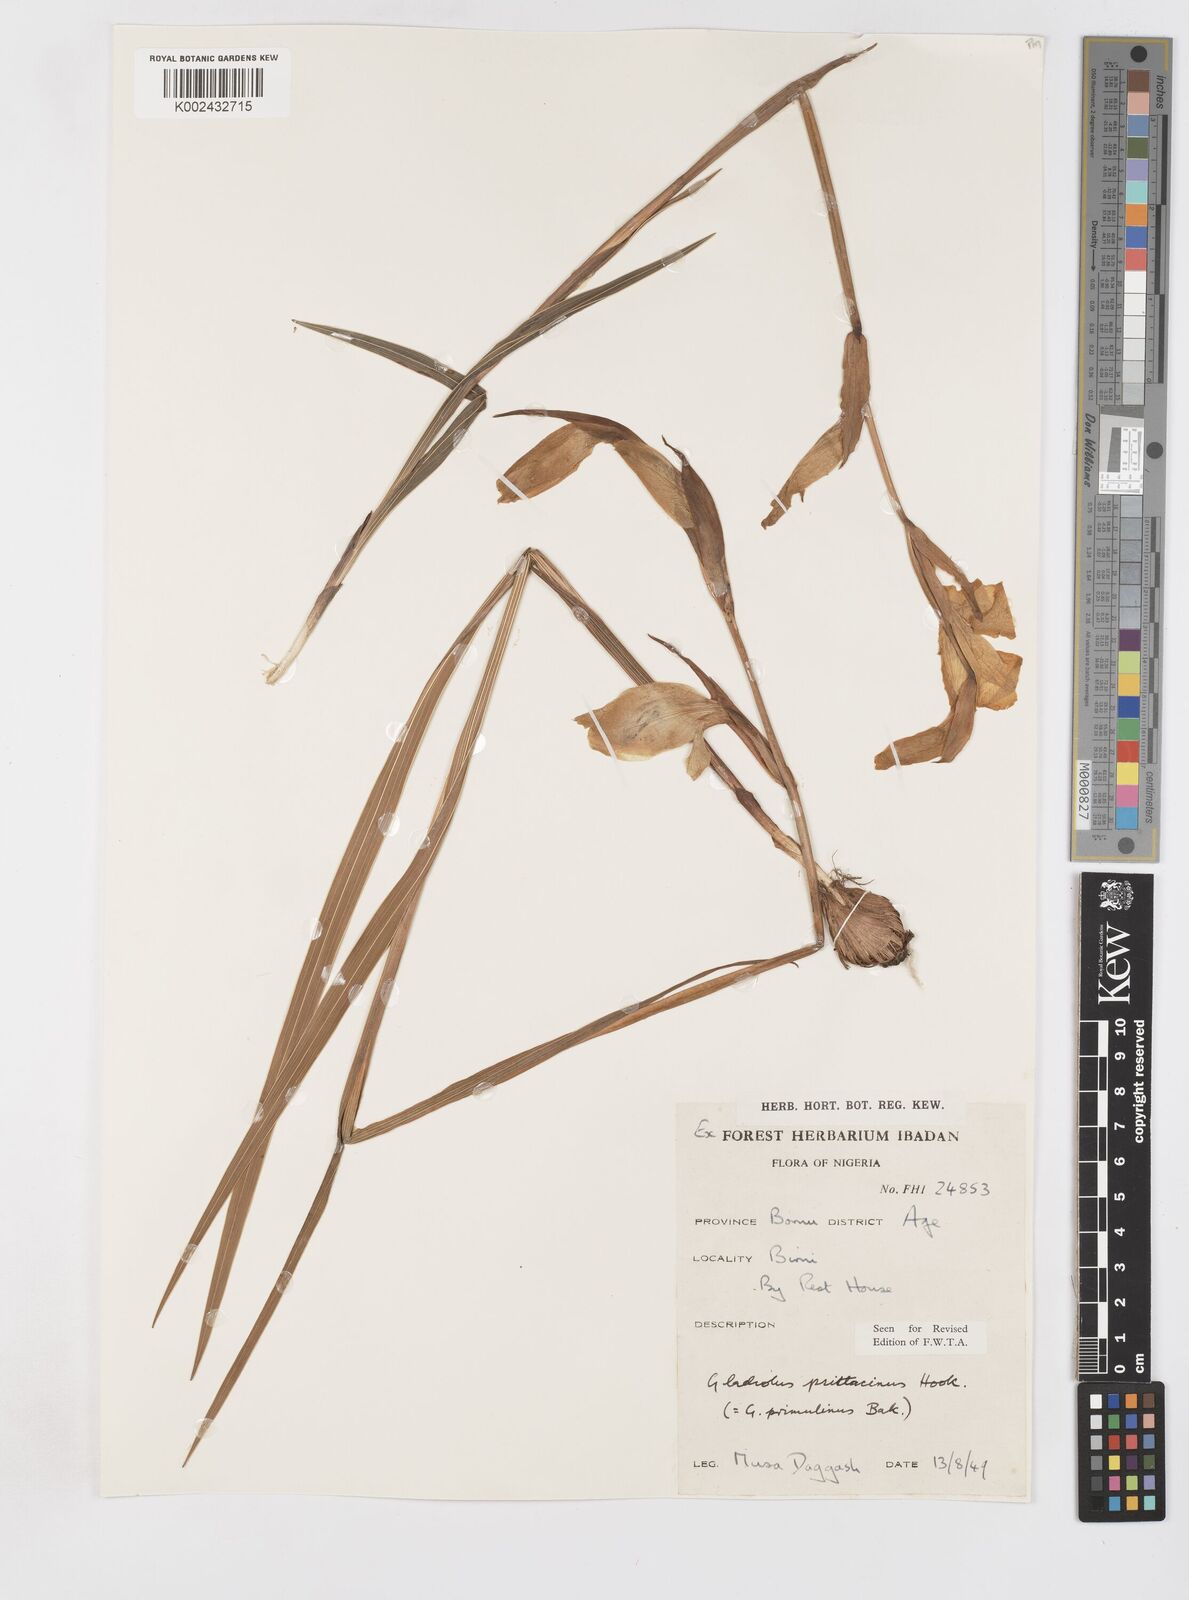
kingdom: Plantae
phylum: Tracheophyta
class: Liliopsida
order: Asparagales
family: Iridaceae
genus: Gladiolus
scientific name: Gladiolus dalenii
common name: Cornflag
